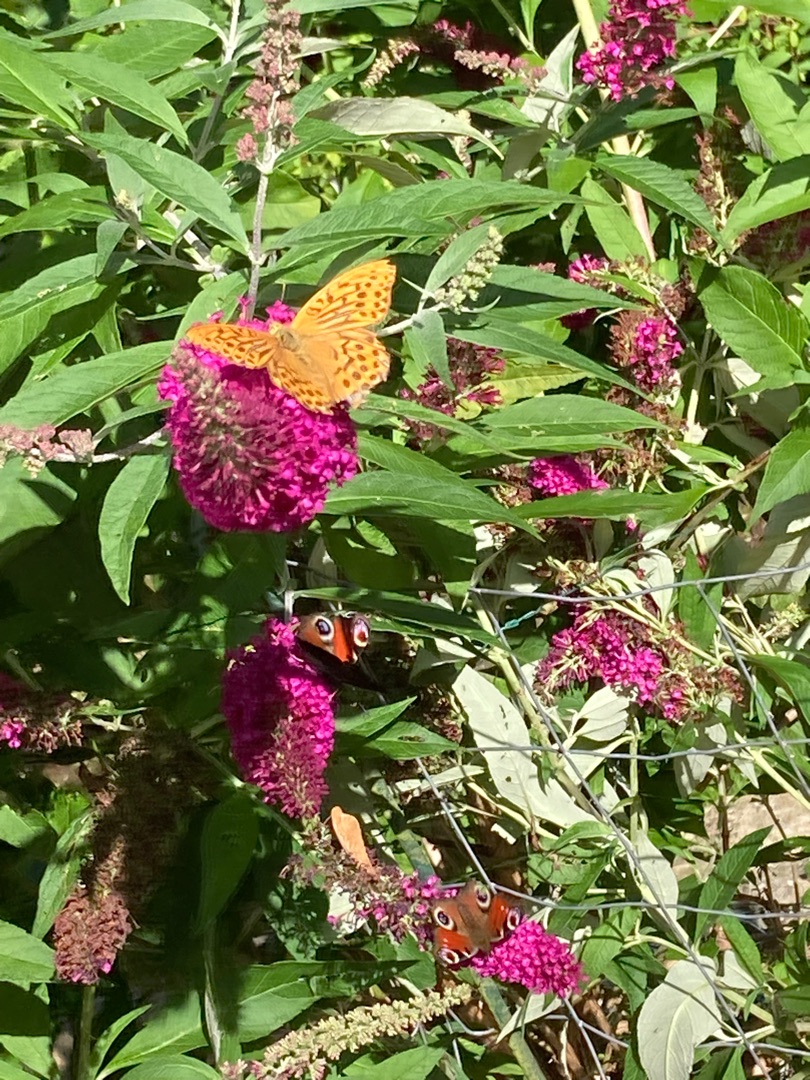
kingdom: Animalia
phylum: Arthropoda
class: Insecta
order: Lepidoptera
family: Nymphalidae
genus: Argynnis
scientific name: Argynnis paphia
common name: Kejserkåbe
